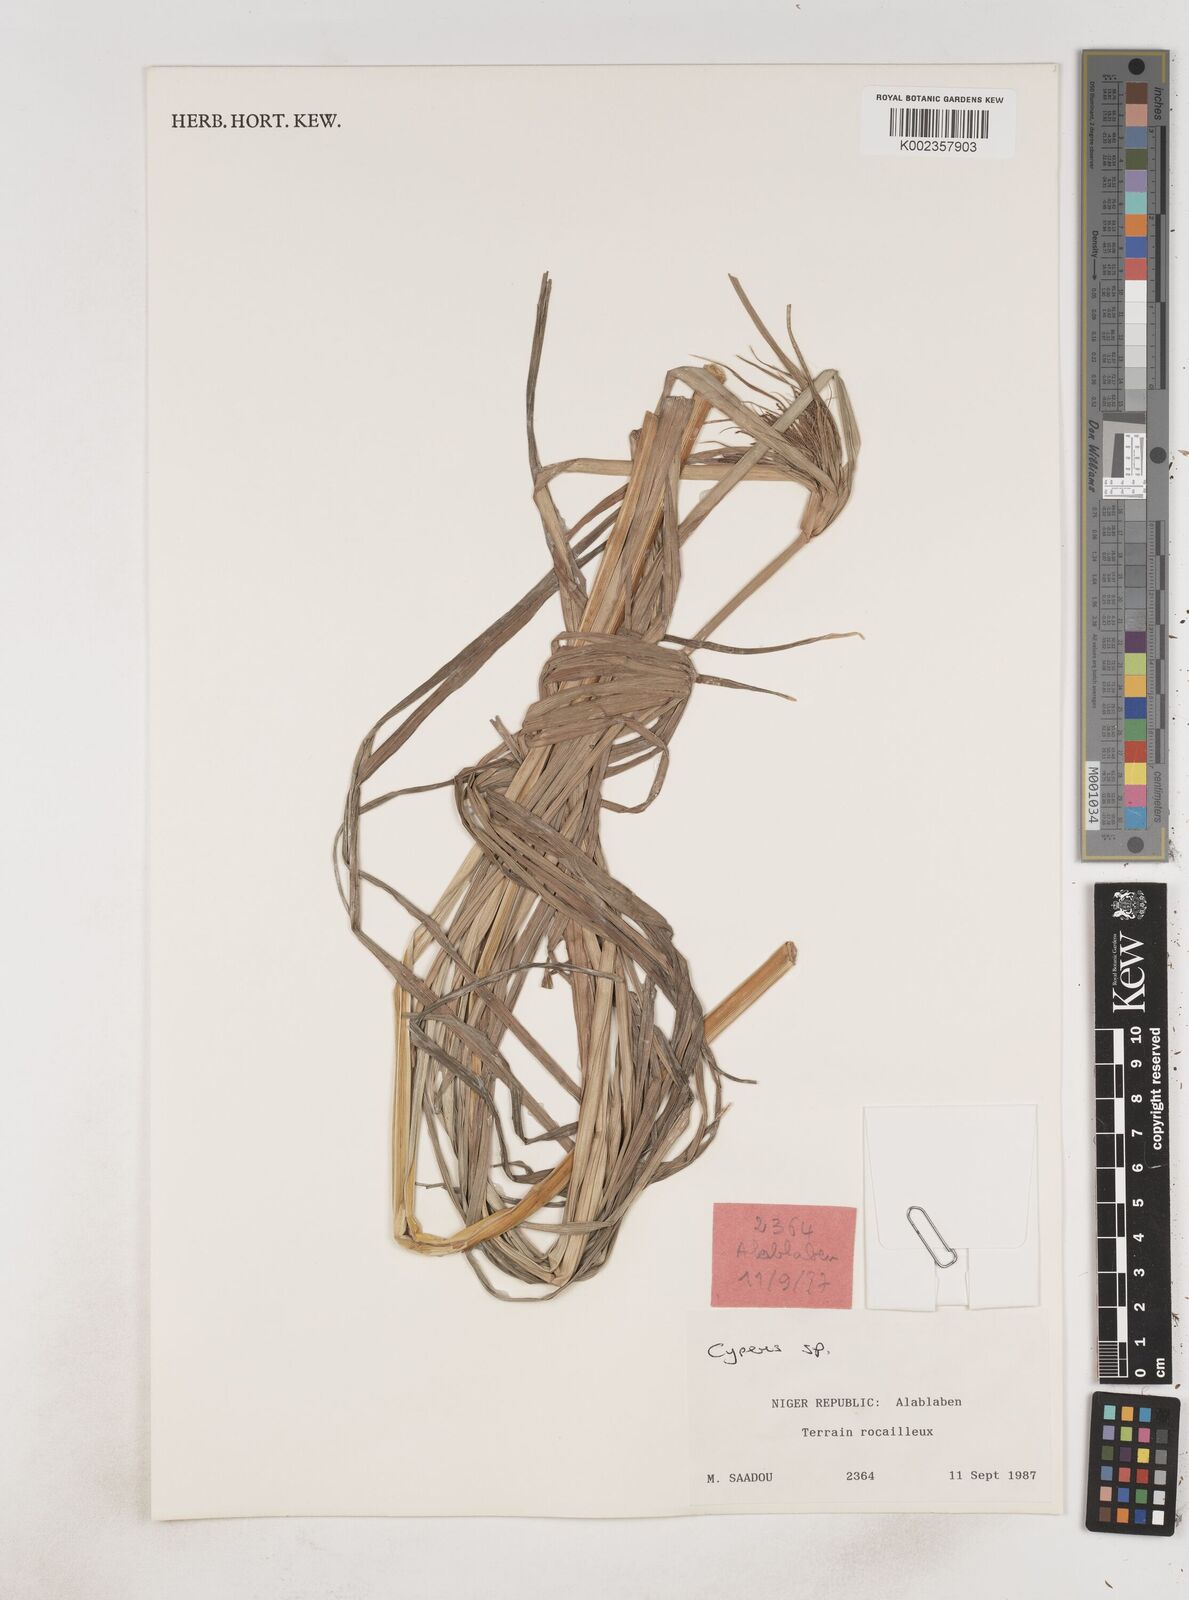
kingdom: Plantae
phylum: Tracheophyta
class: Liliopsida
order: Poales
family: Cyperaceae
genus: Cyperus
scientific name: Cyperus
